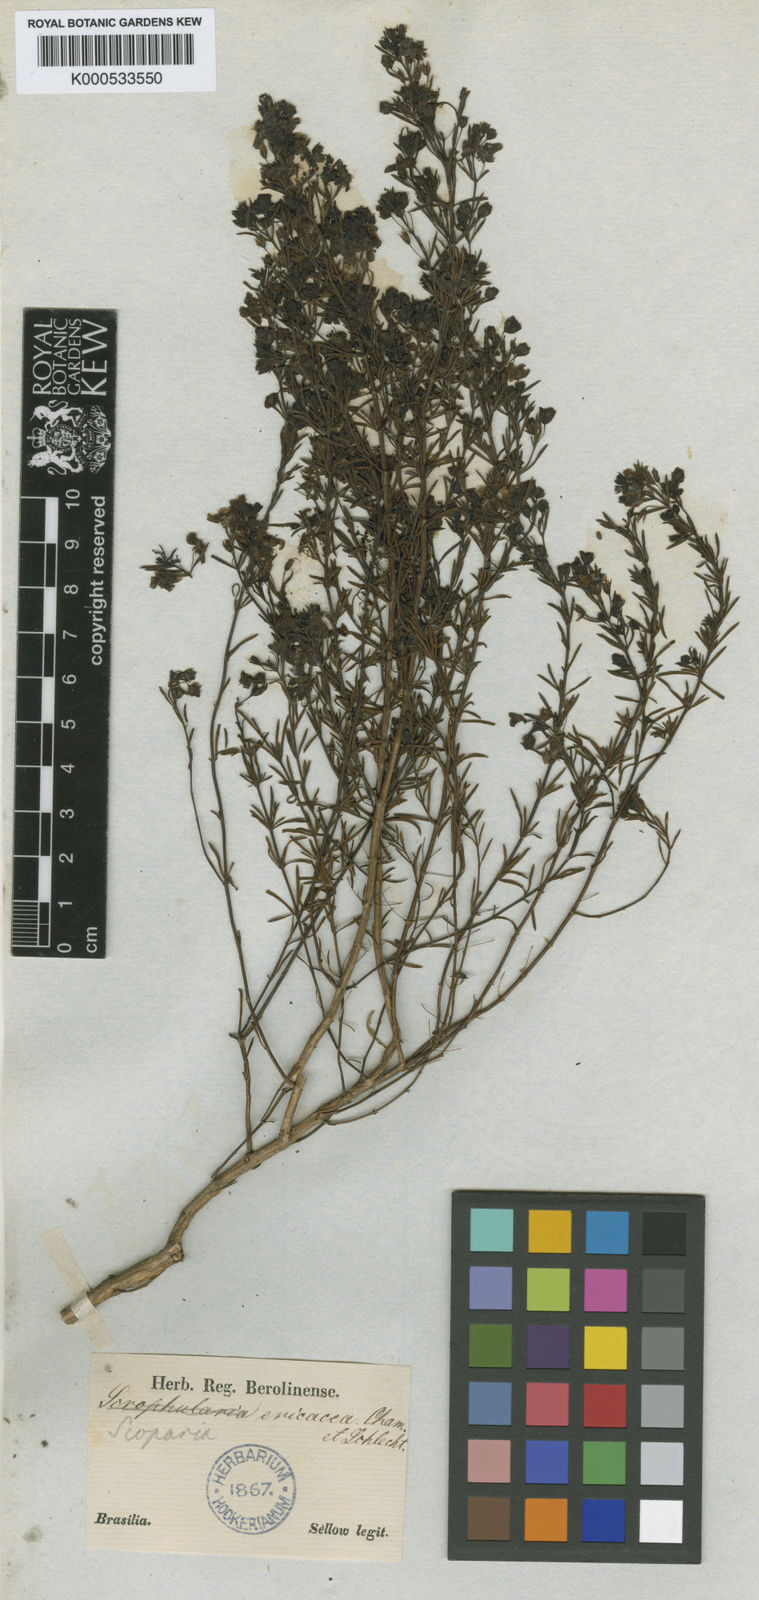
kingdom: Plantae
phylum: Tracheophyta
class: Magnoliopsida
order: Lamiales
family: Plantaginaceae
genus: Scoparia
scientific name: Scoparia ericacea
